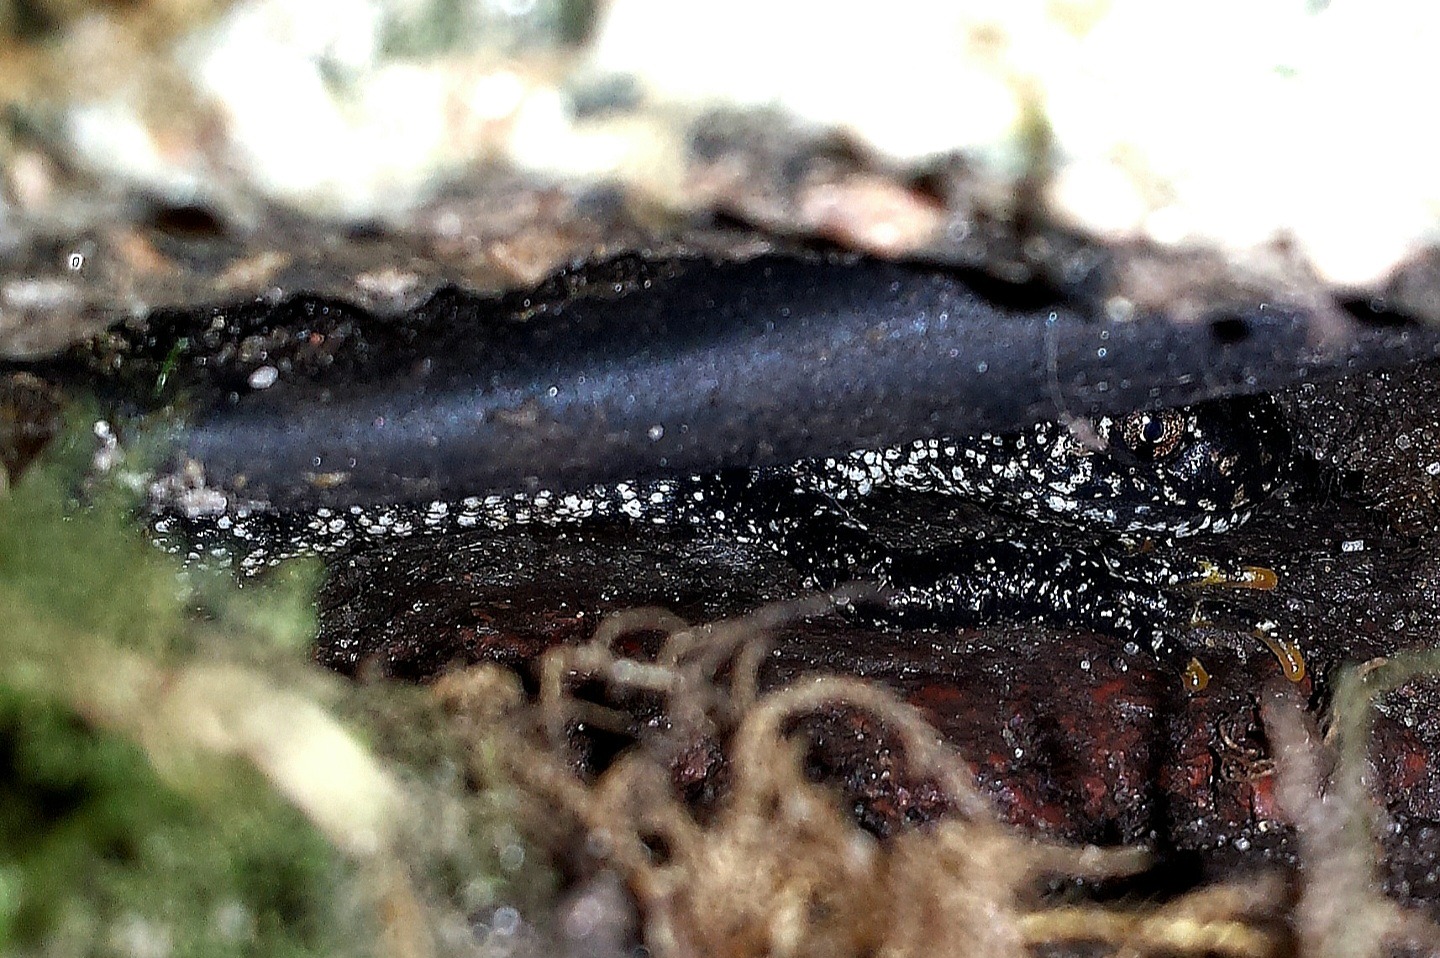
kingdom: Animalia
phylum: Chordata
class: Amphibia
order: Caudata
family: Salamandridae
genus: Triturus
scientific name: Triturus cristatus
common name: Stor vandsalamander
